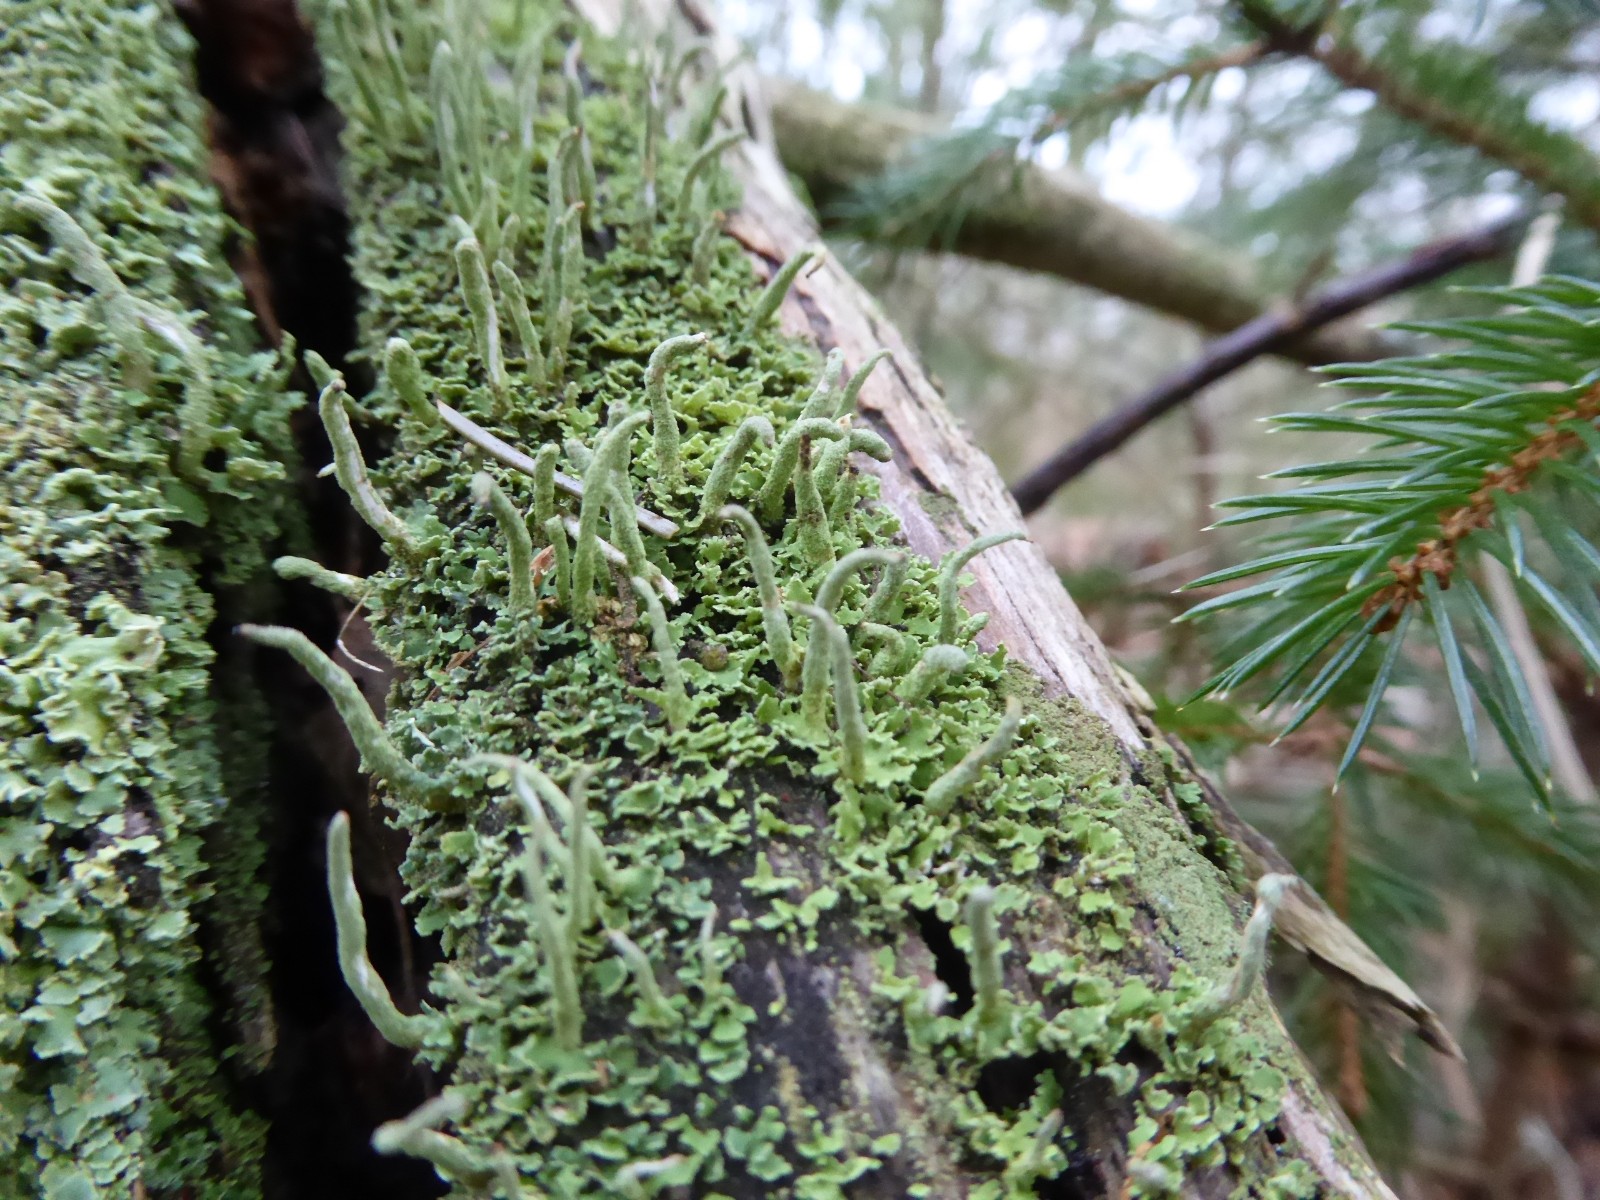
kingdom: Fungi
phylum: Ascomycota
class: Lecanoromycetes
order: Lecanorales
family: Cladoniaceae
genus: Cladonia
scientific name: Cladonia coniocraea
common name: træfods-bægerlav
